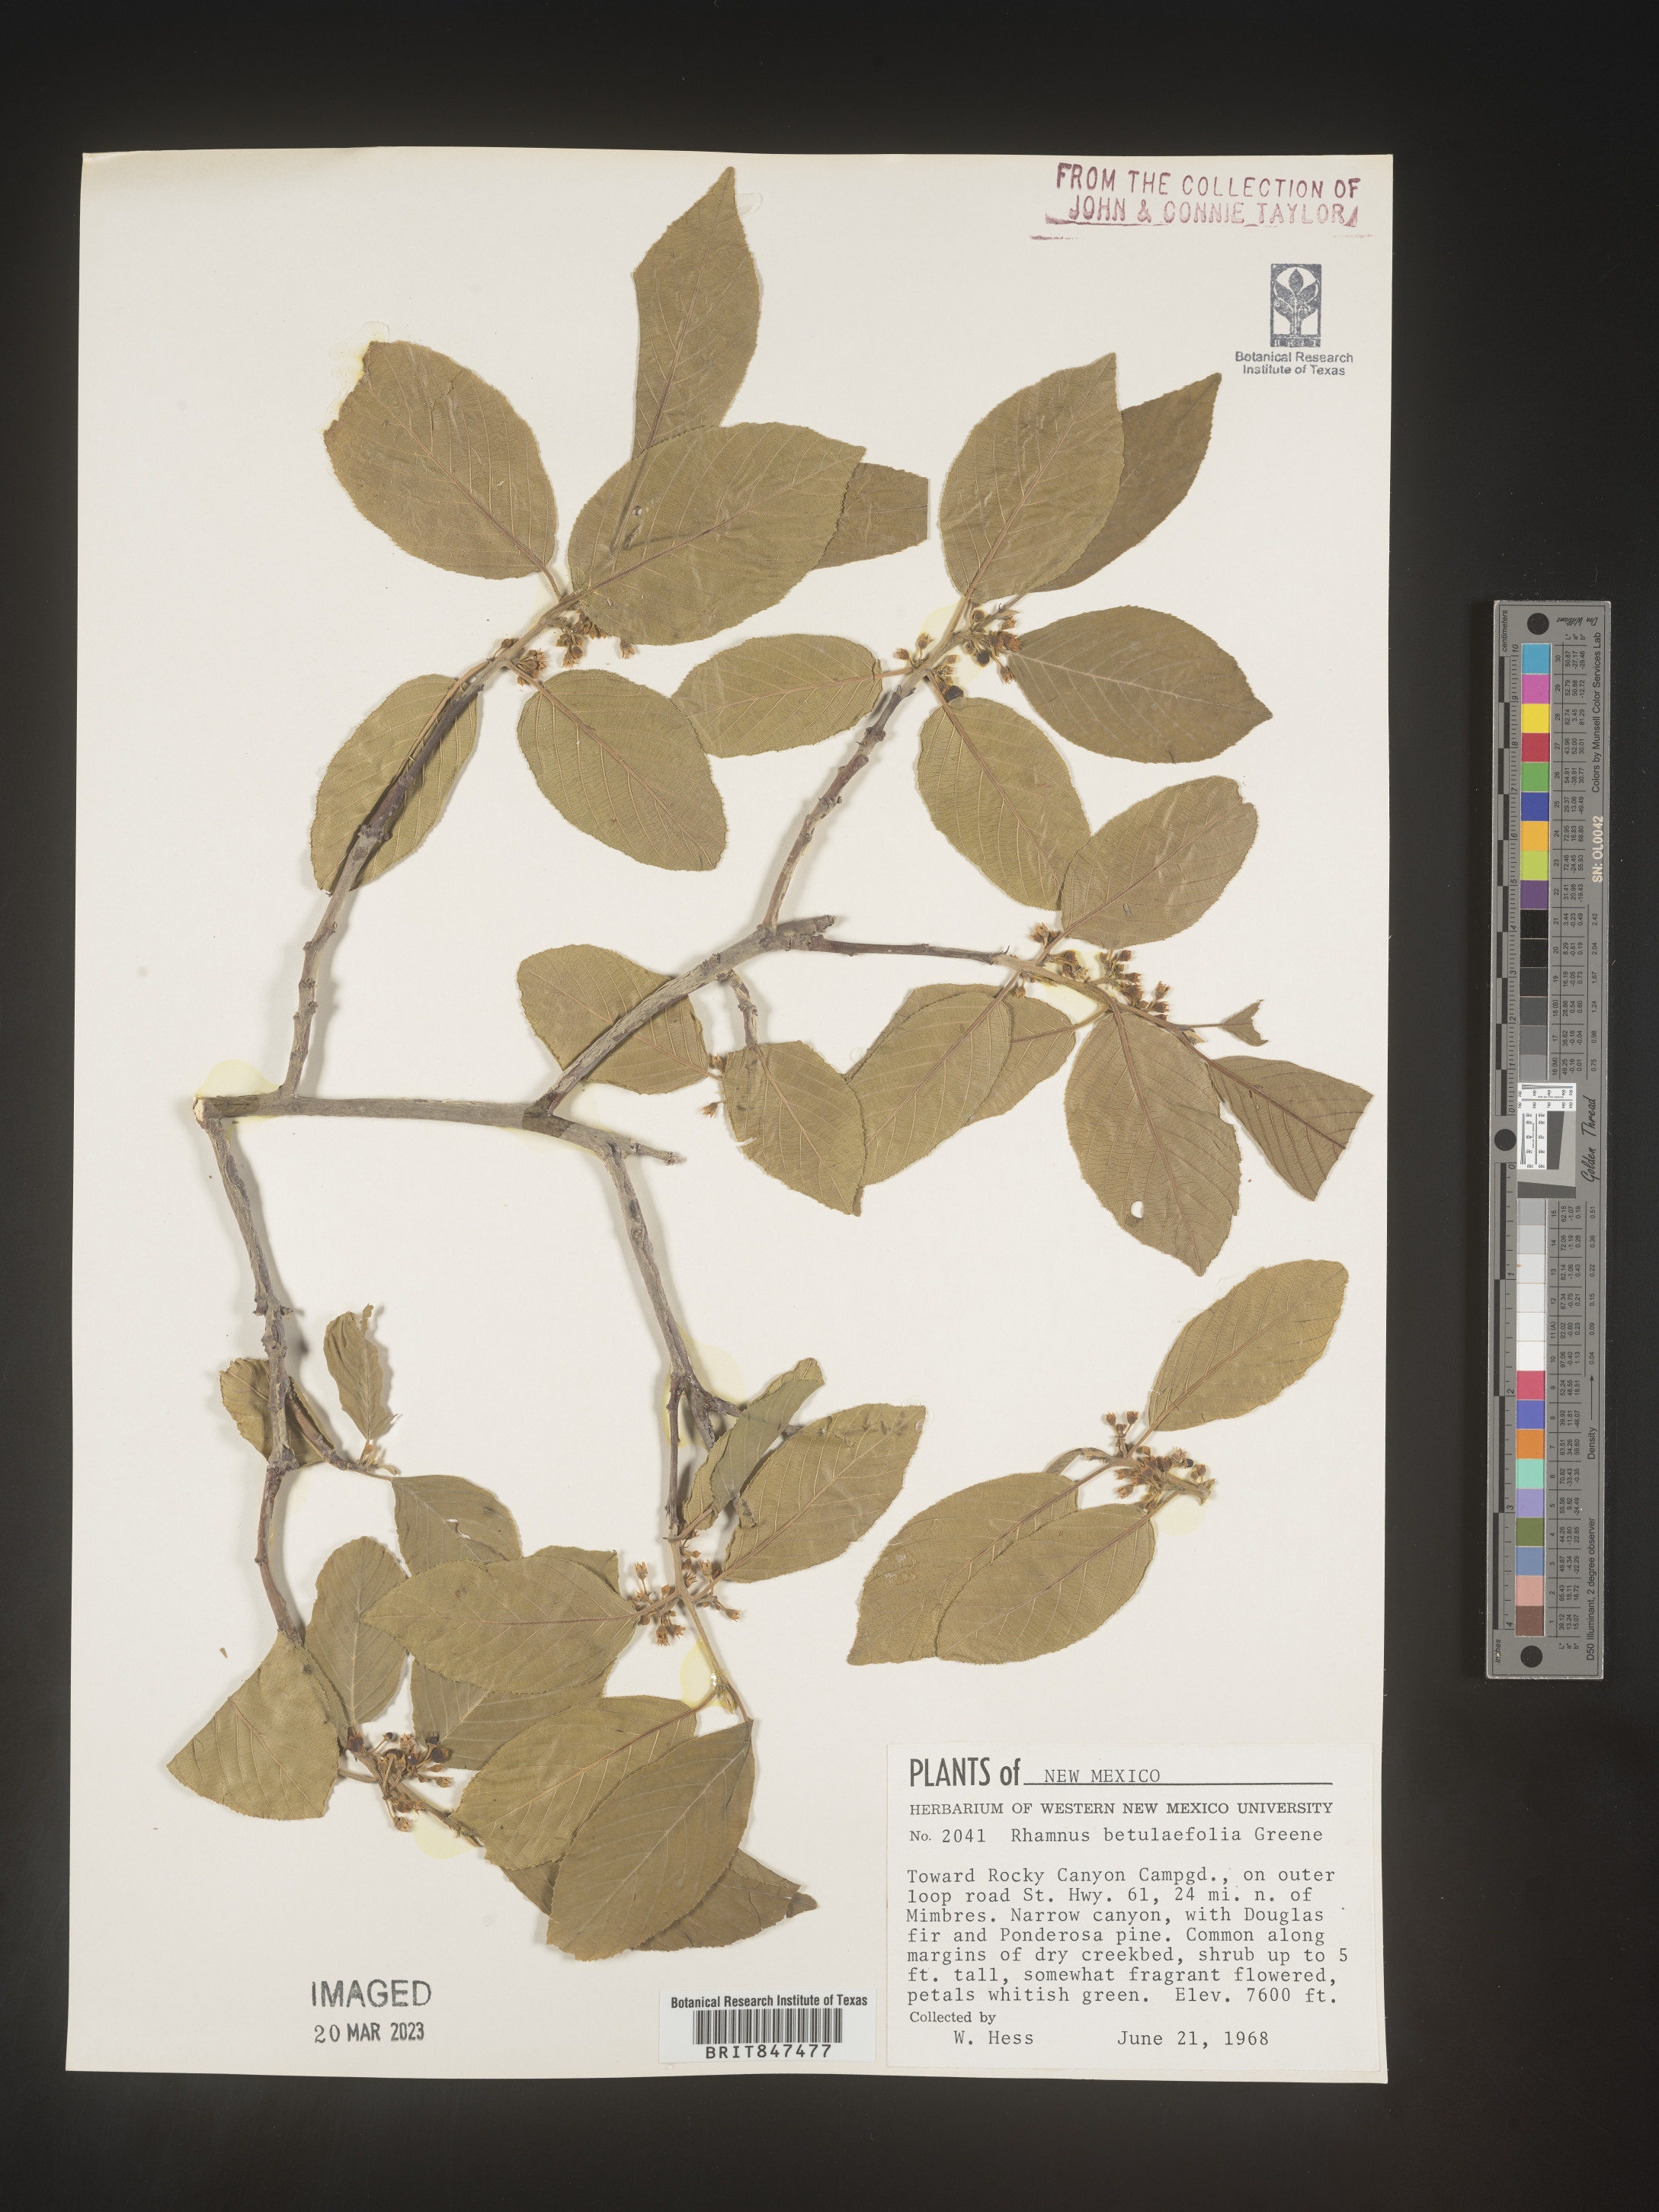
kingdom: Plantae
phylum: Tracheophyta
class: Magnoliopsida
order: Rosales
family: Rhamnaceae
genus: Frangula
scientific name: Frangula betulifolia
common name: Birch-leaf buckthorn
